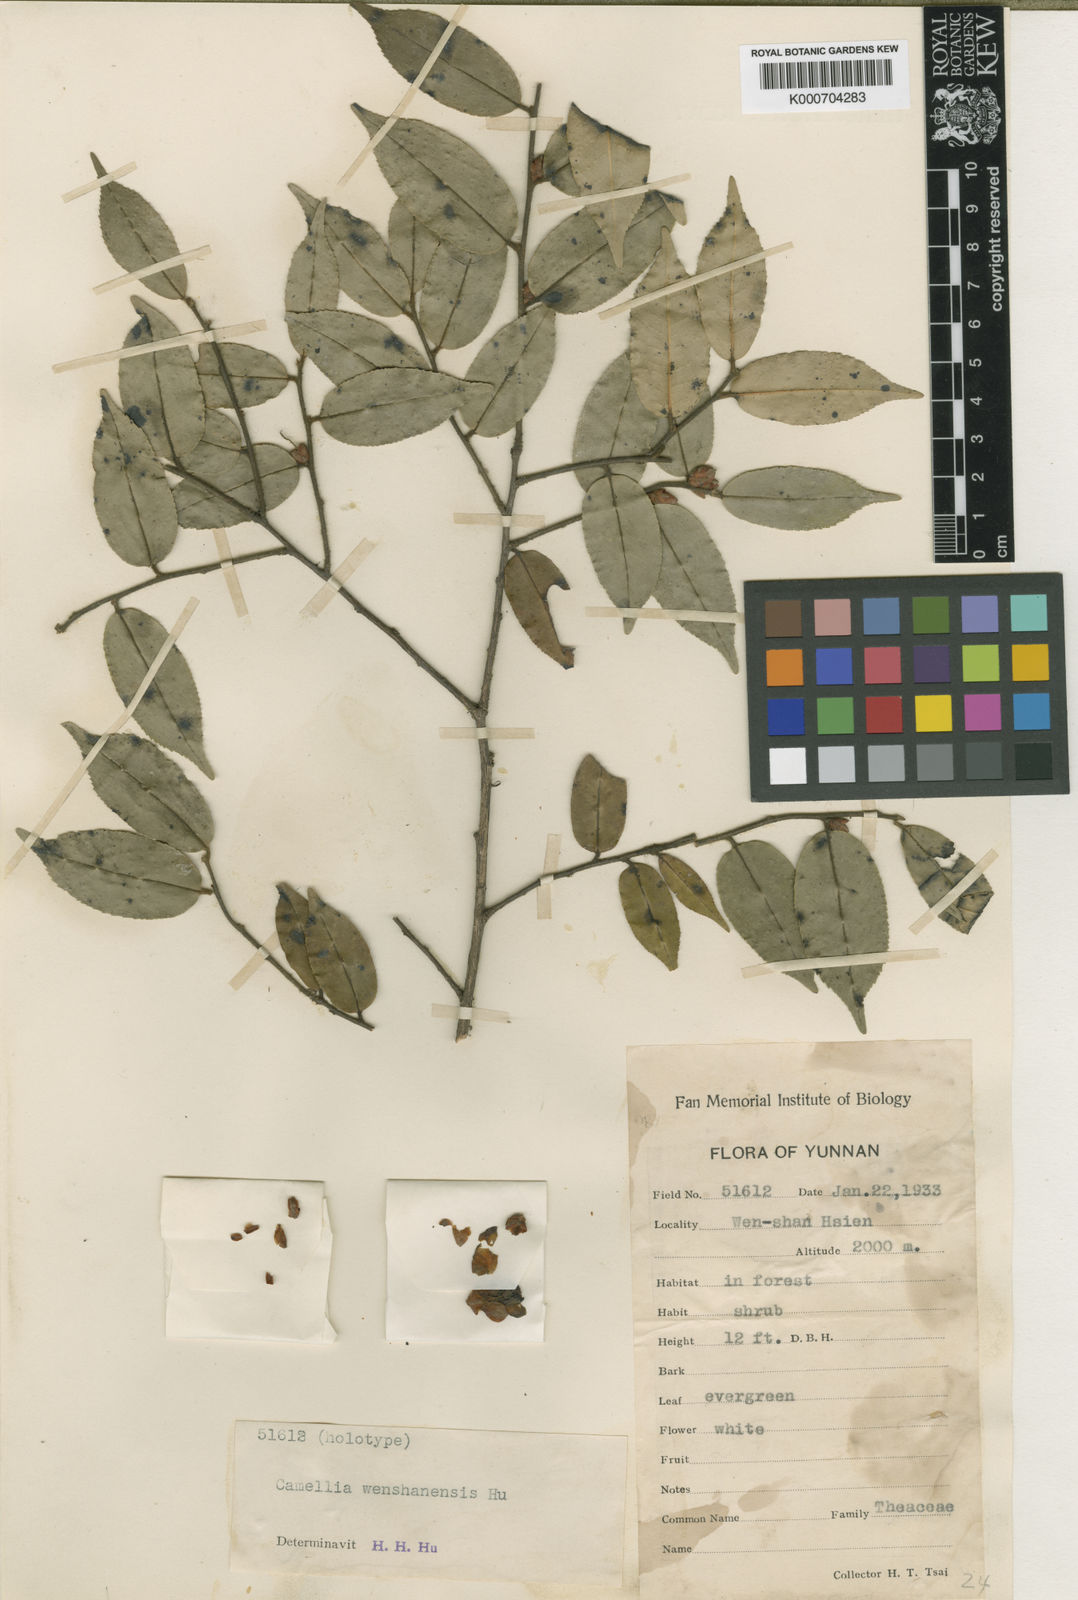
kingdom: Plantae
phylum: Tracheophyta
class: Magnoliopsida
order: Ericales
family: Theaceae
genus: Camellia
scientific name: Camellia cordifolia
